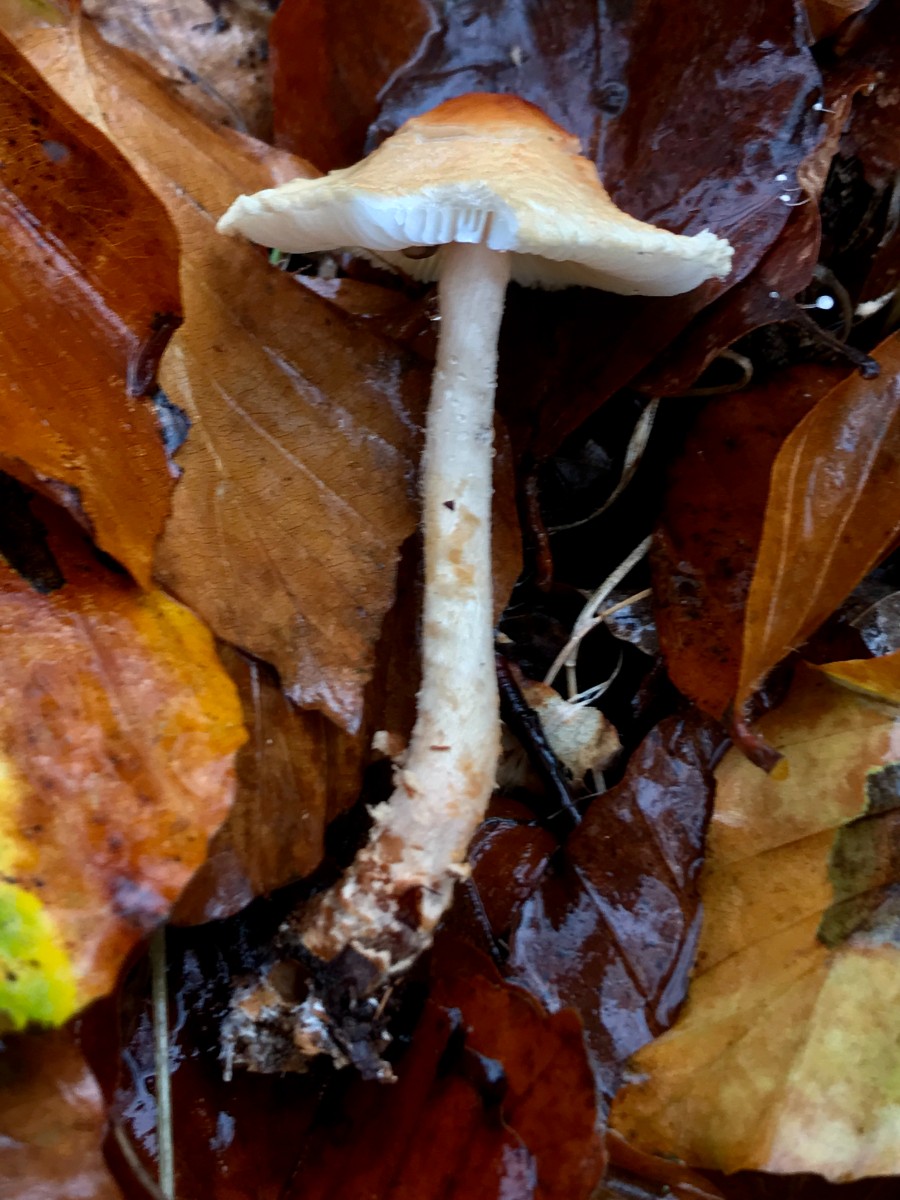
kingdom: Fungi
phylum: Basidiomycota
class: Agaricomycetes
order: Agaricales
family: Agaricaceae
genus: Lepiota
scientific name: Lepiota magnispora
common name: gulfnugget parasolhat
